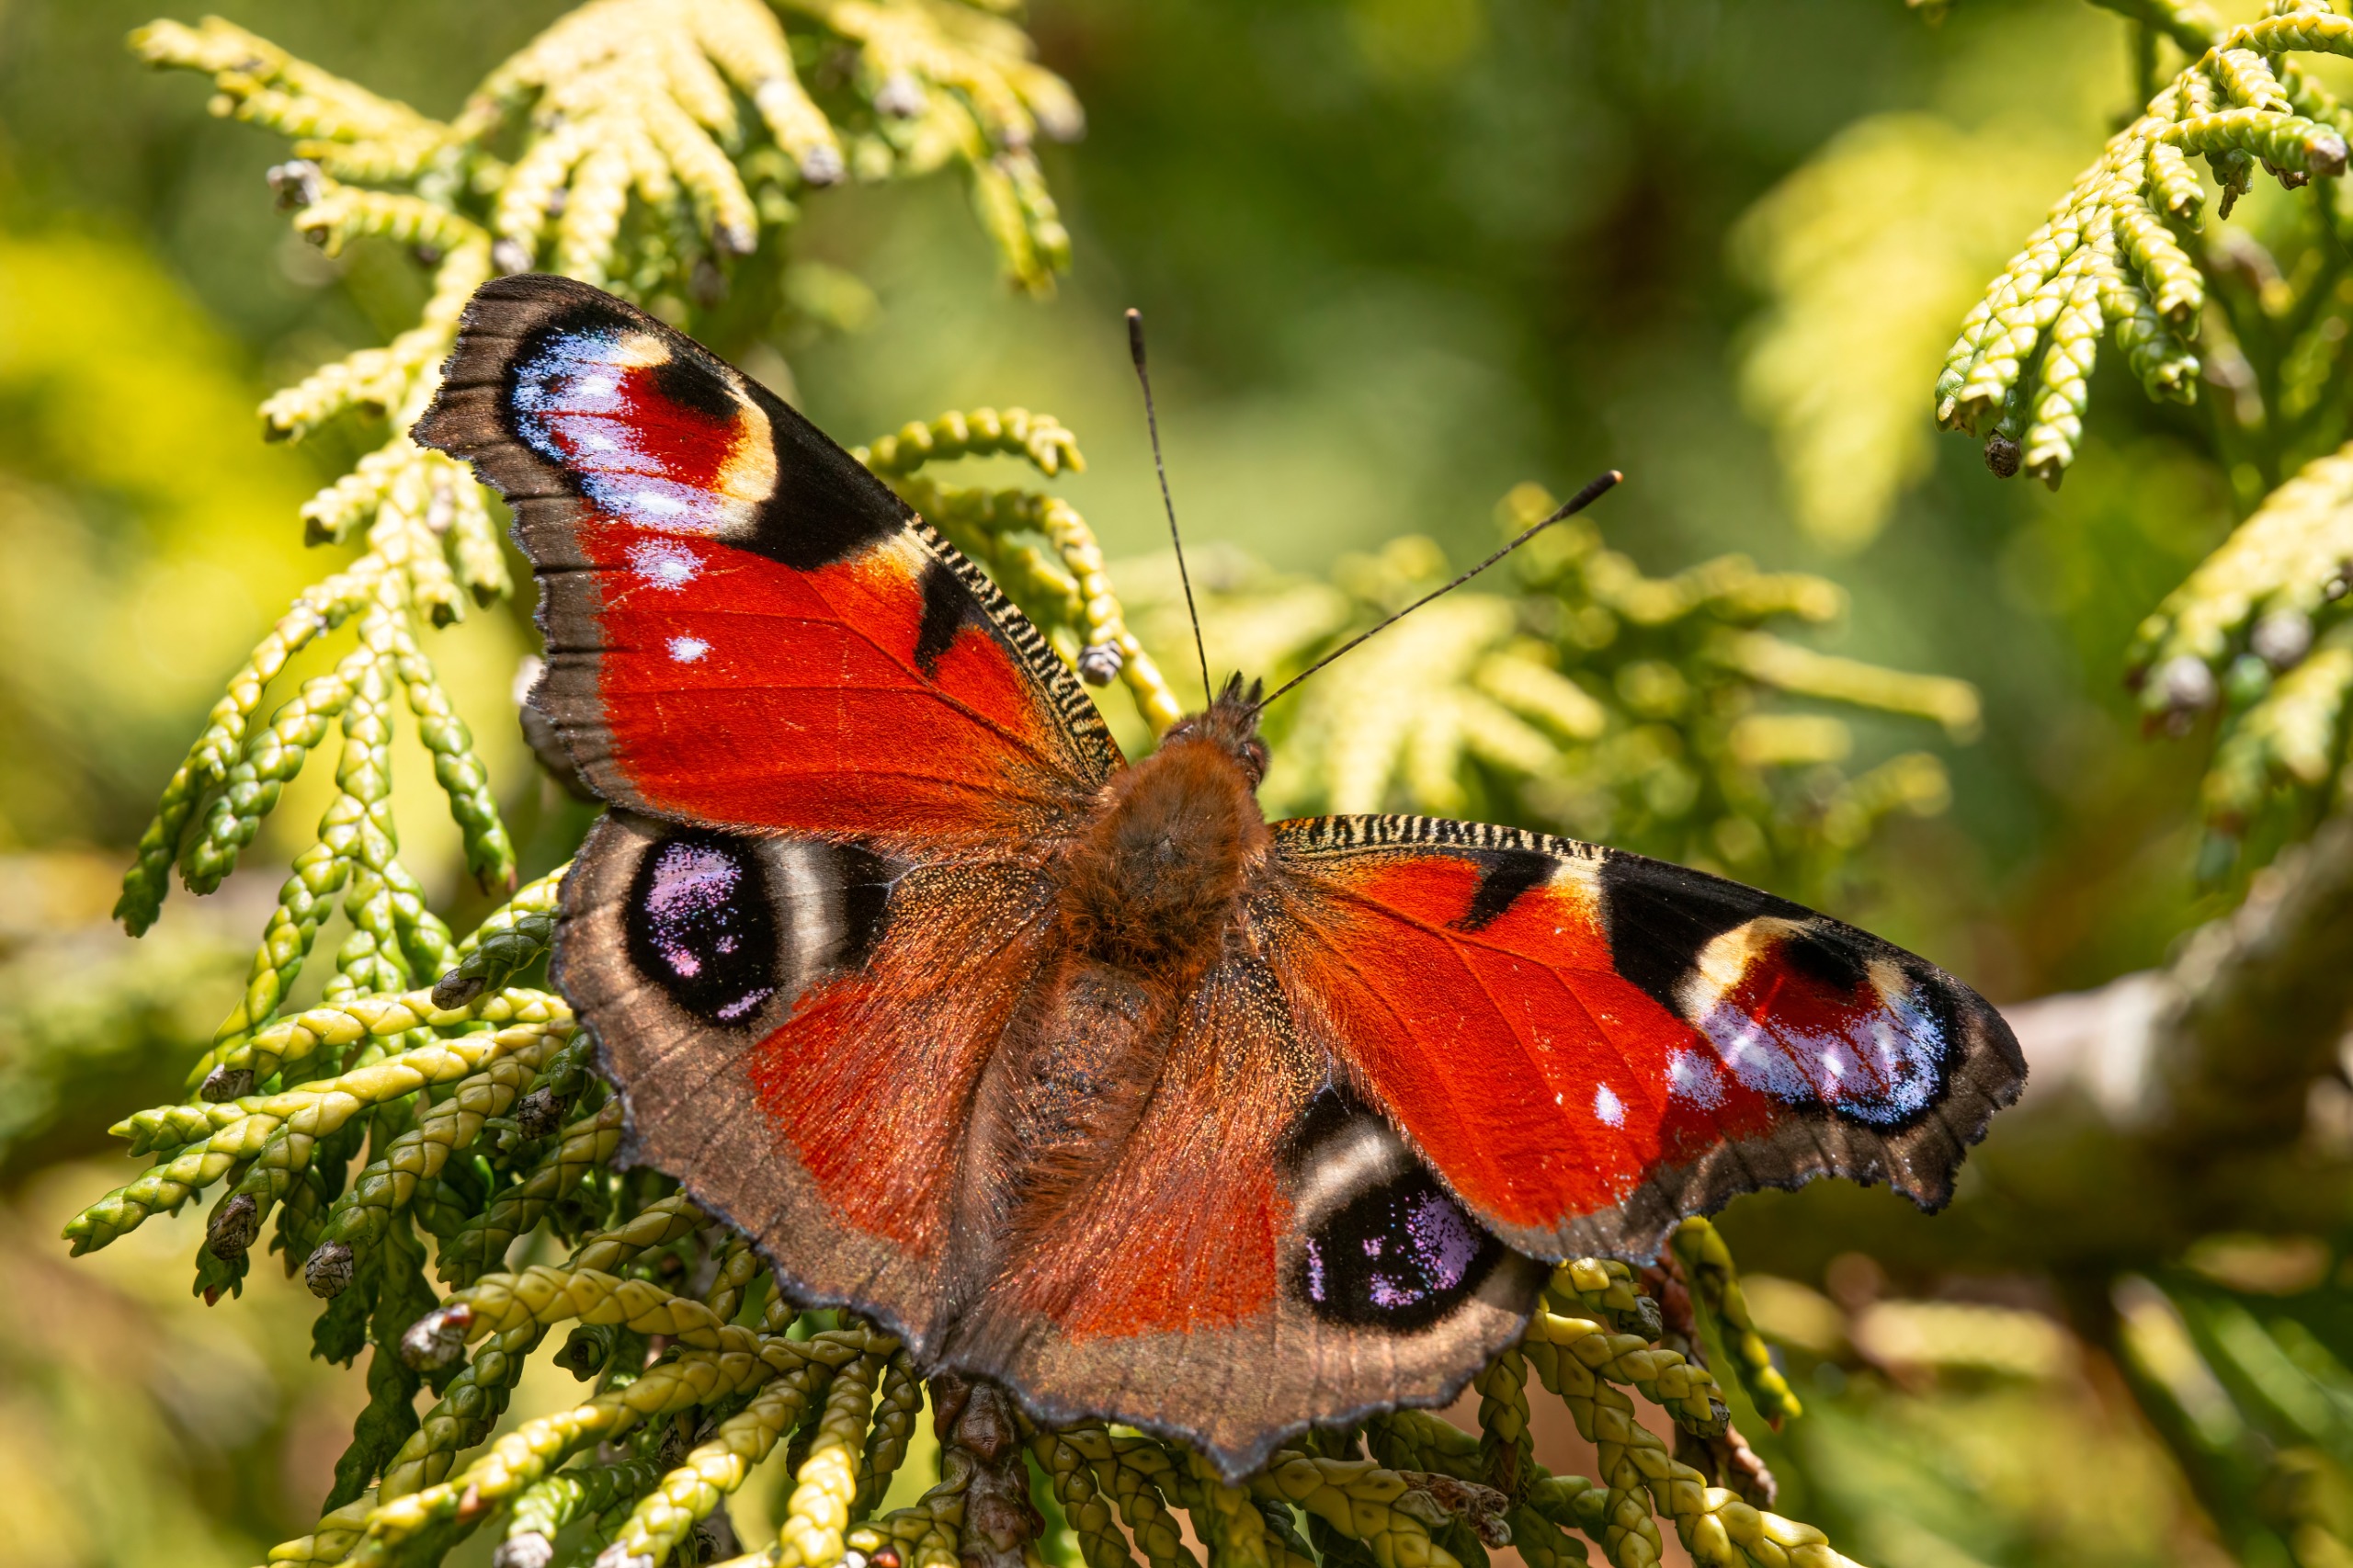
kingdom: Animalia
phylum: Arthropoda
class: Insecta
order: Lepidoptera
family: Nymphalidae
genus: Aglais
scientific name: Aglais io
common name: Dagpåfugleøje
